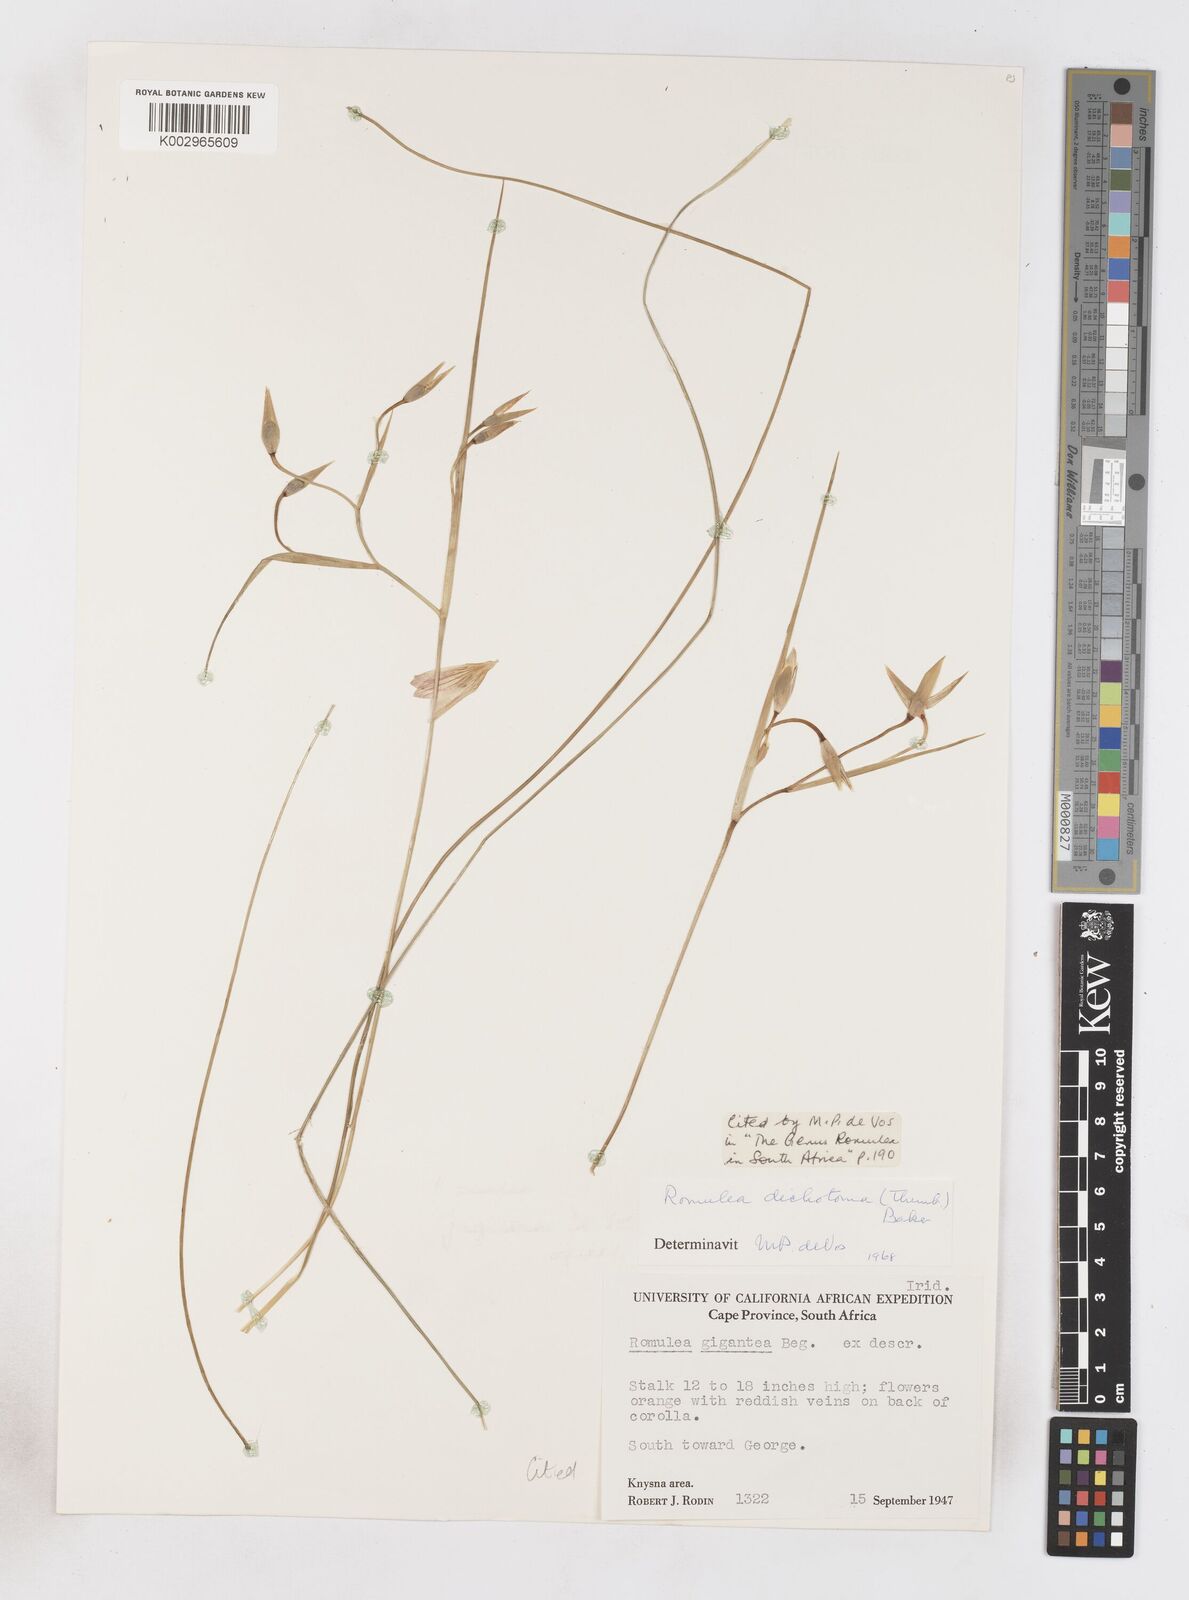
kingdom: Plantae
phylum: Tracheophyta
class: Liliopsida
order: Asparagales
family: Iridaceae
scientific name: Iridaceae
